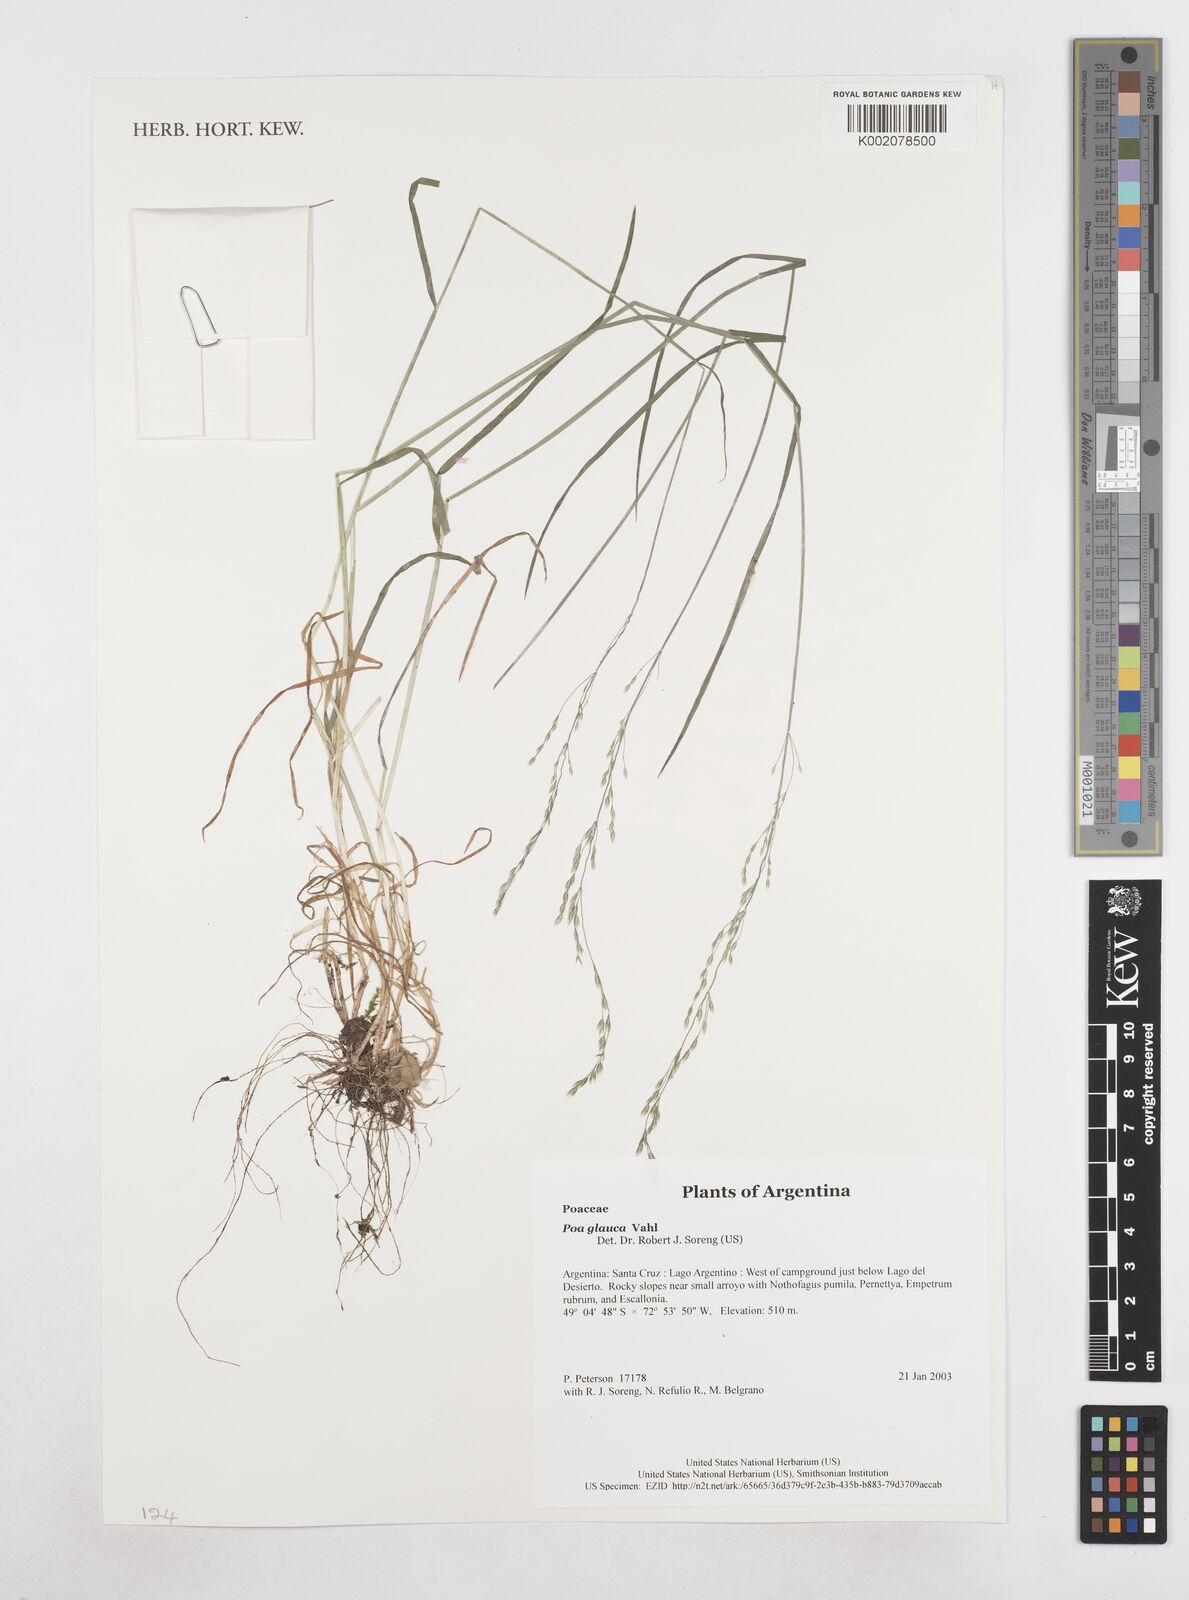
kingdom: Plantae
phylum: Tracheophyta
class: Liliopsida
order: Poales
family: Poaceae
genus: Poa
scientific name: Poa glauca
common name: Glaucous bluegrass
